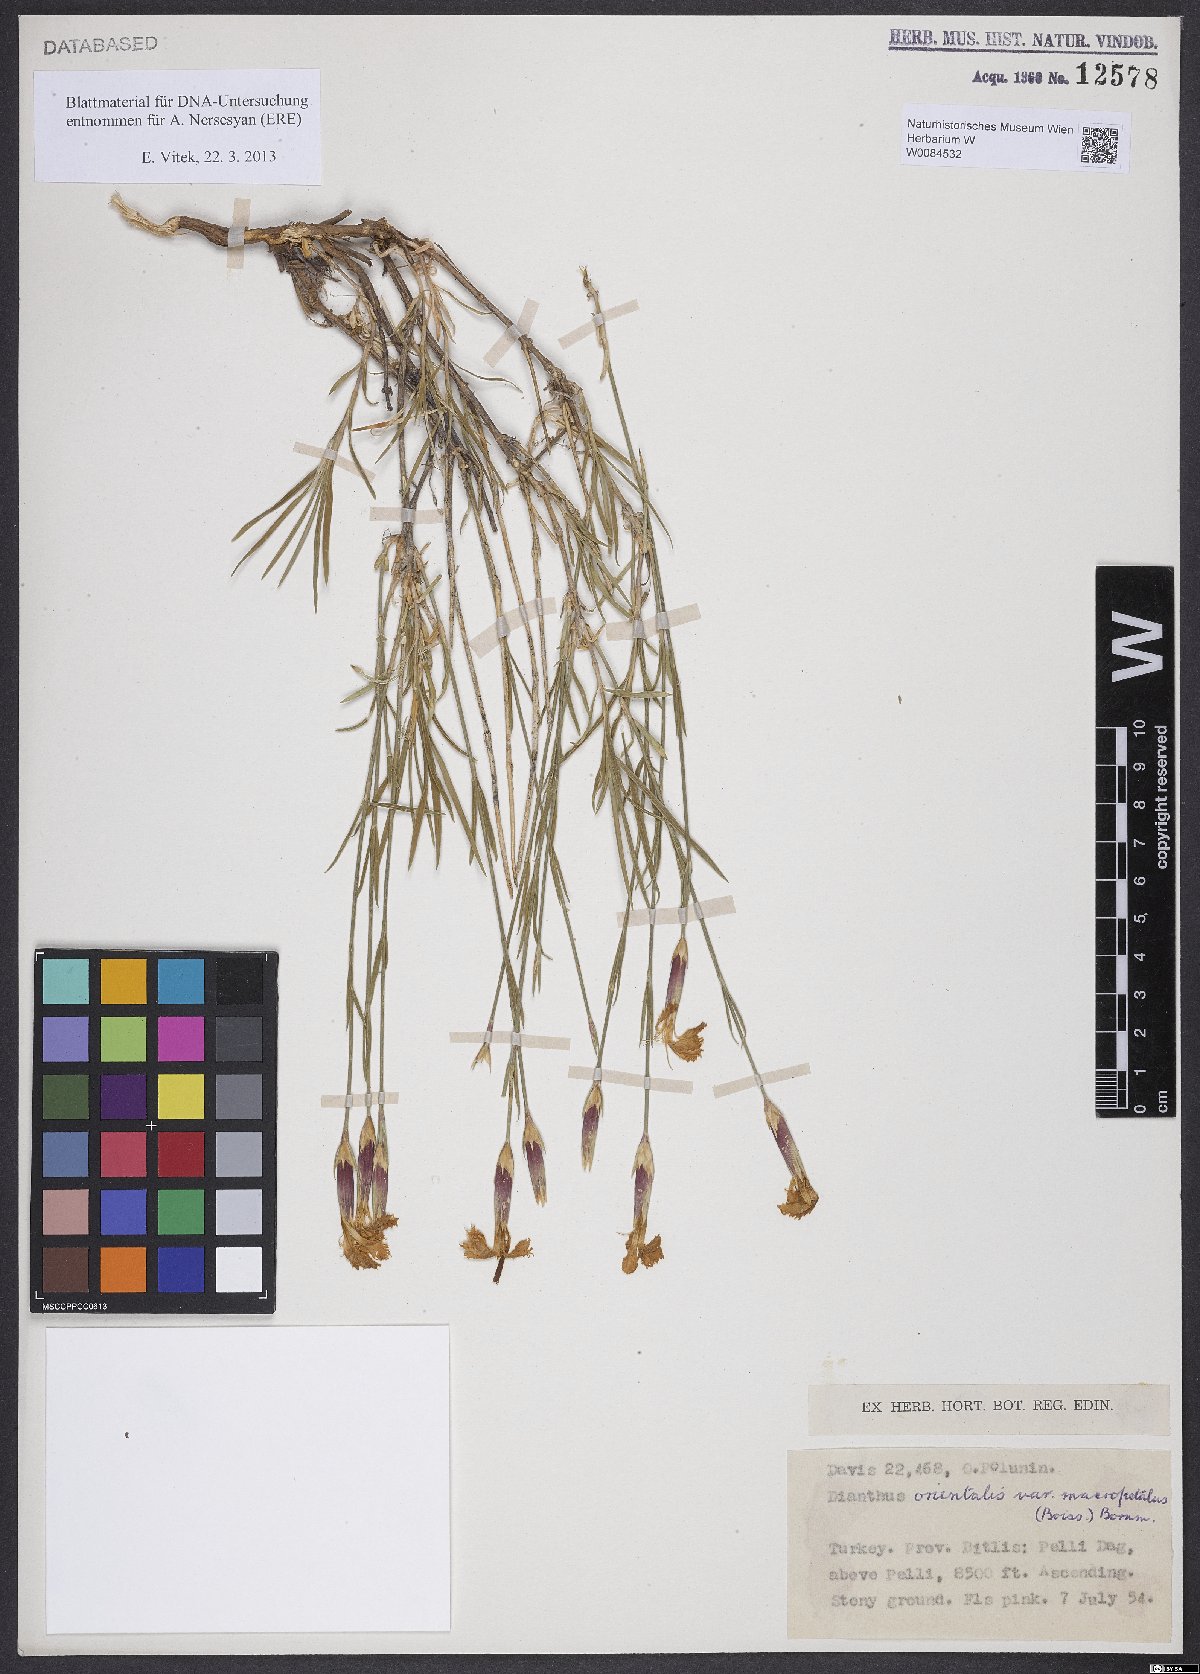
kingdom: Plantae
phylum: Tracheophyta
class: Magnoliopsida
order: Caryophyllales
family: Caryophyllaceae
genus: Dianthus
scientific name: Dianthus orientalis
